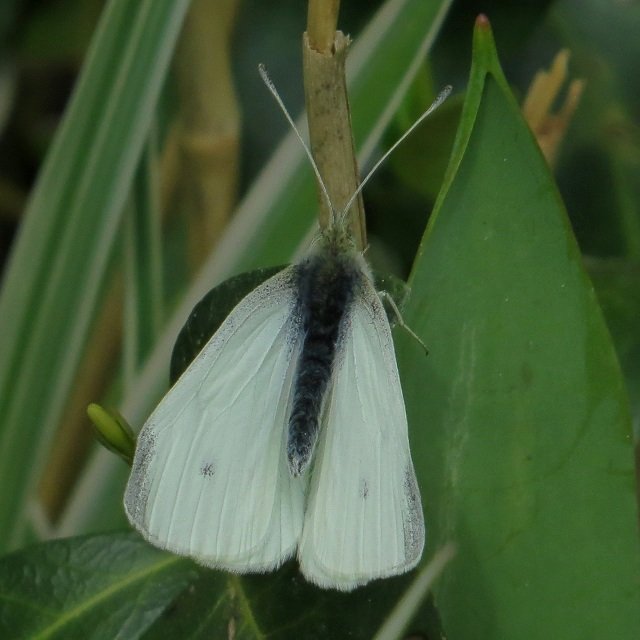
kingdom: Animalia
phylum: Arthropoda
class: Insecta
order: Lepidoptera
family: Pieridae
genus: Pieris
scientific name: Pieris rapae
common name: Cabbage White
